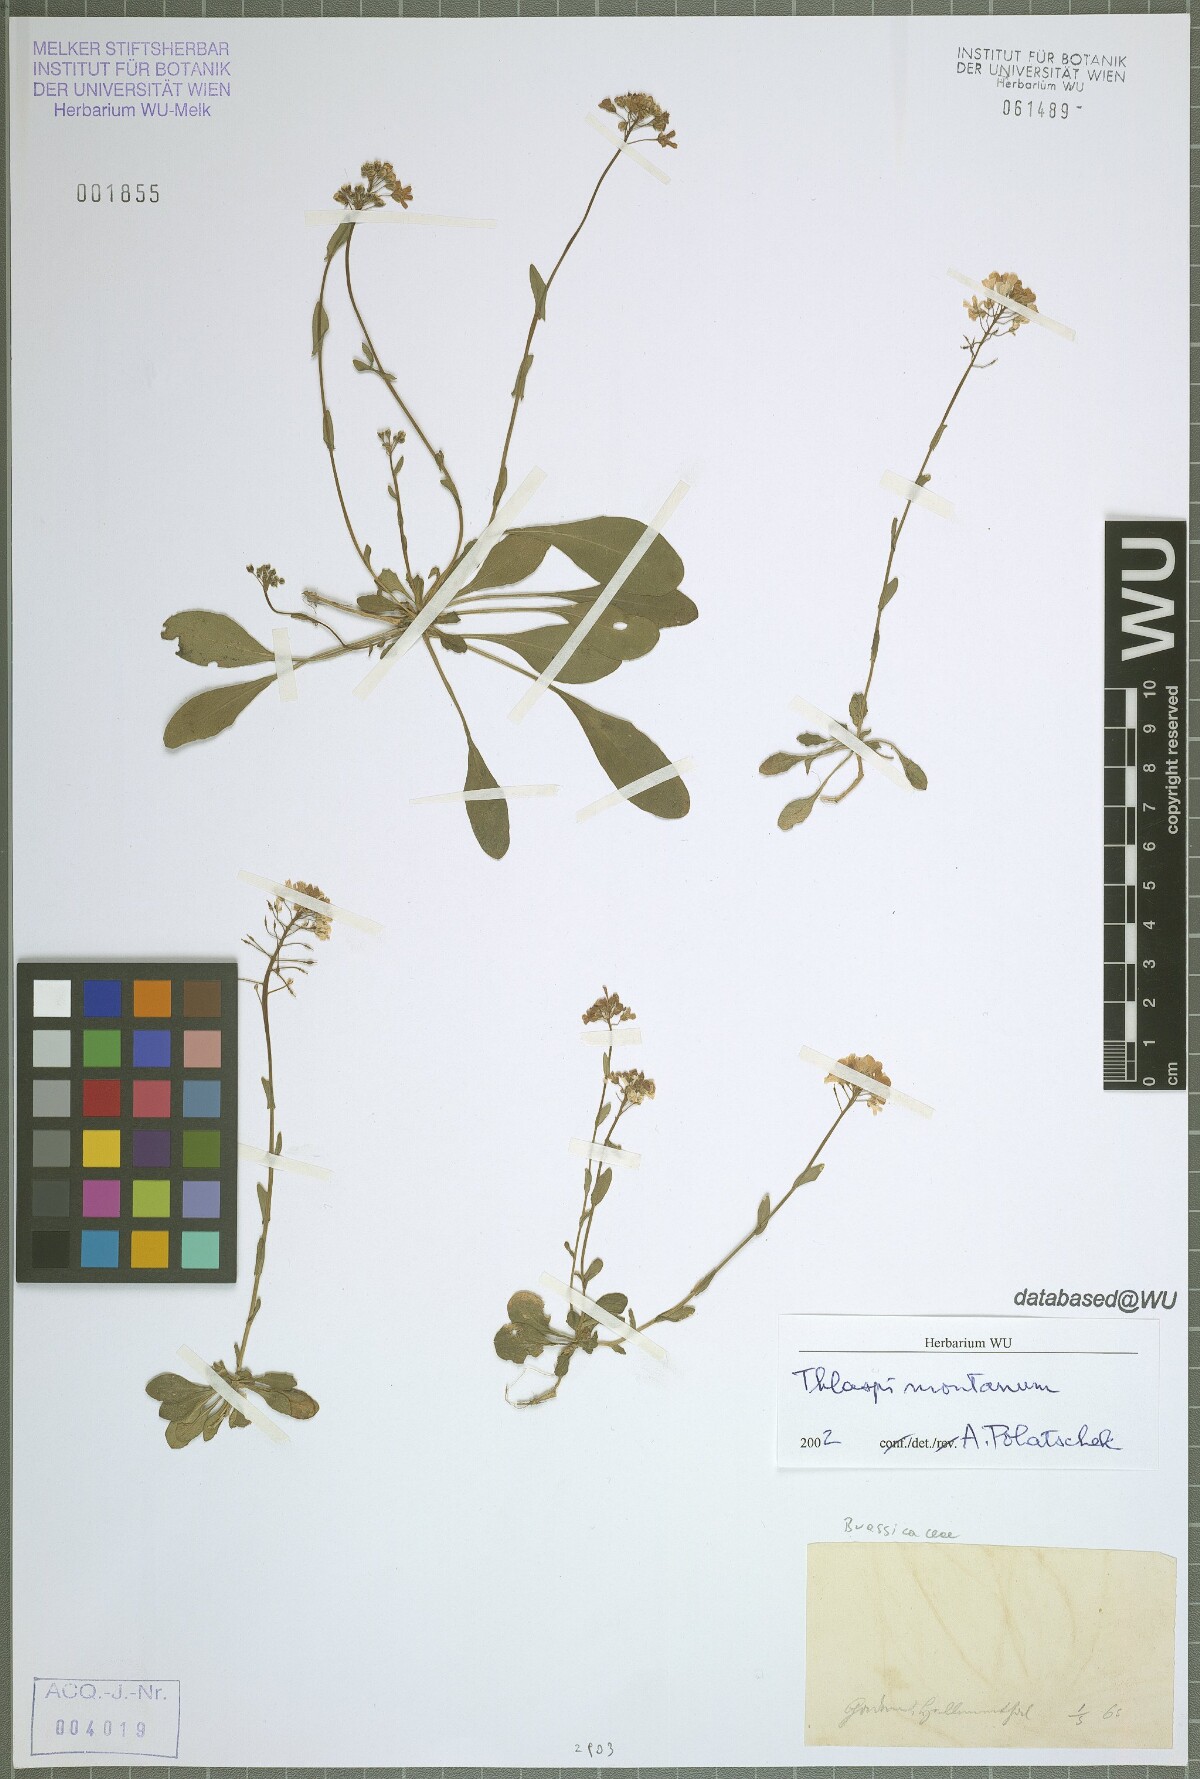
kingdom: Plantae
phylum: Tracheophyta
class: Magnoliopsida
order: Brassicales
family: Brassicaceae
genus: Noccaea
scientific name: Noccaea montana
